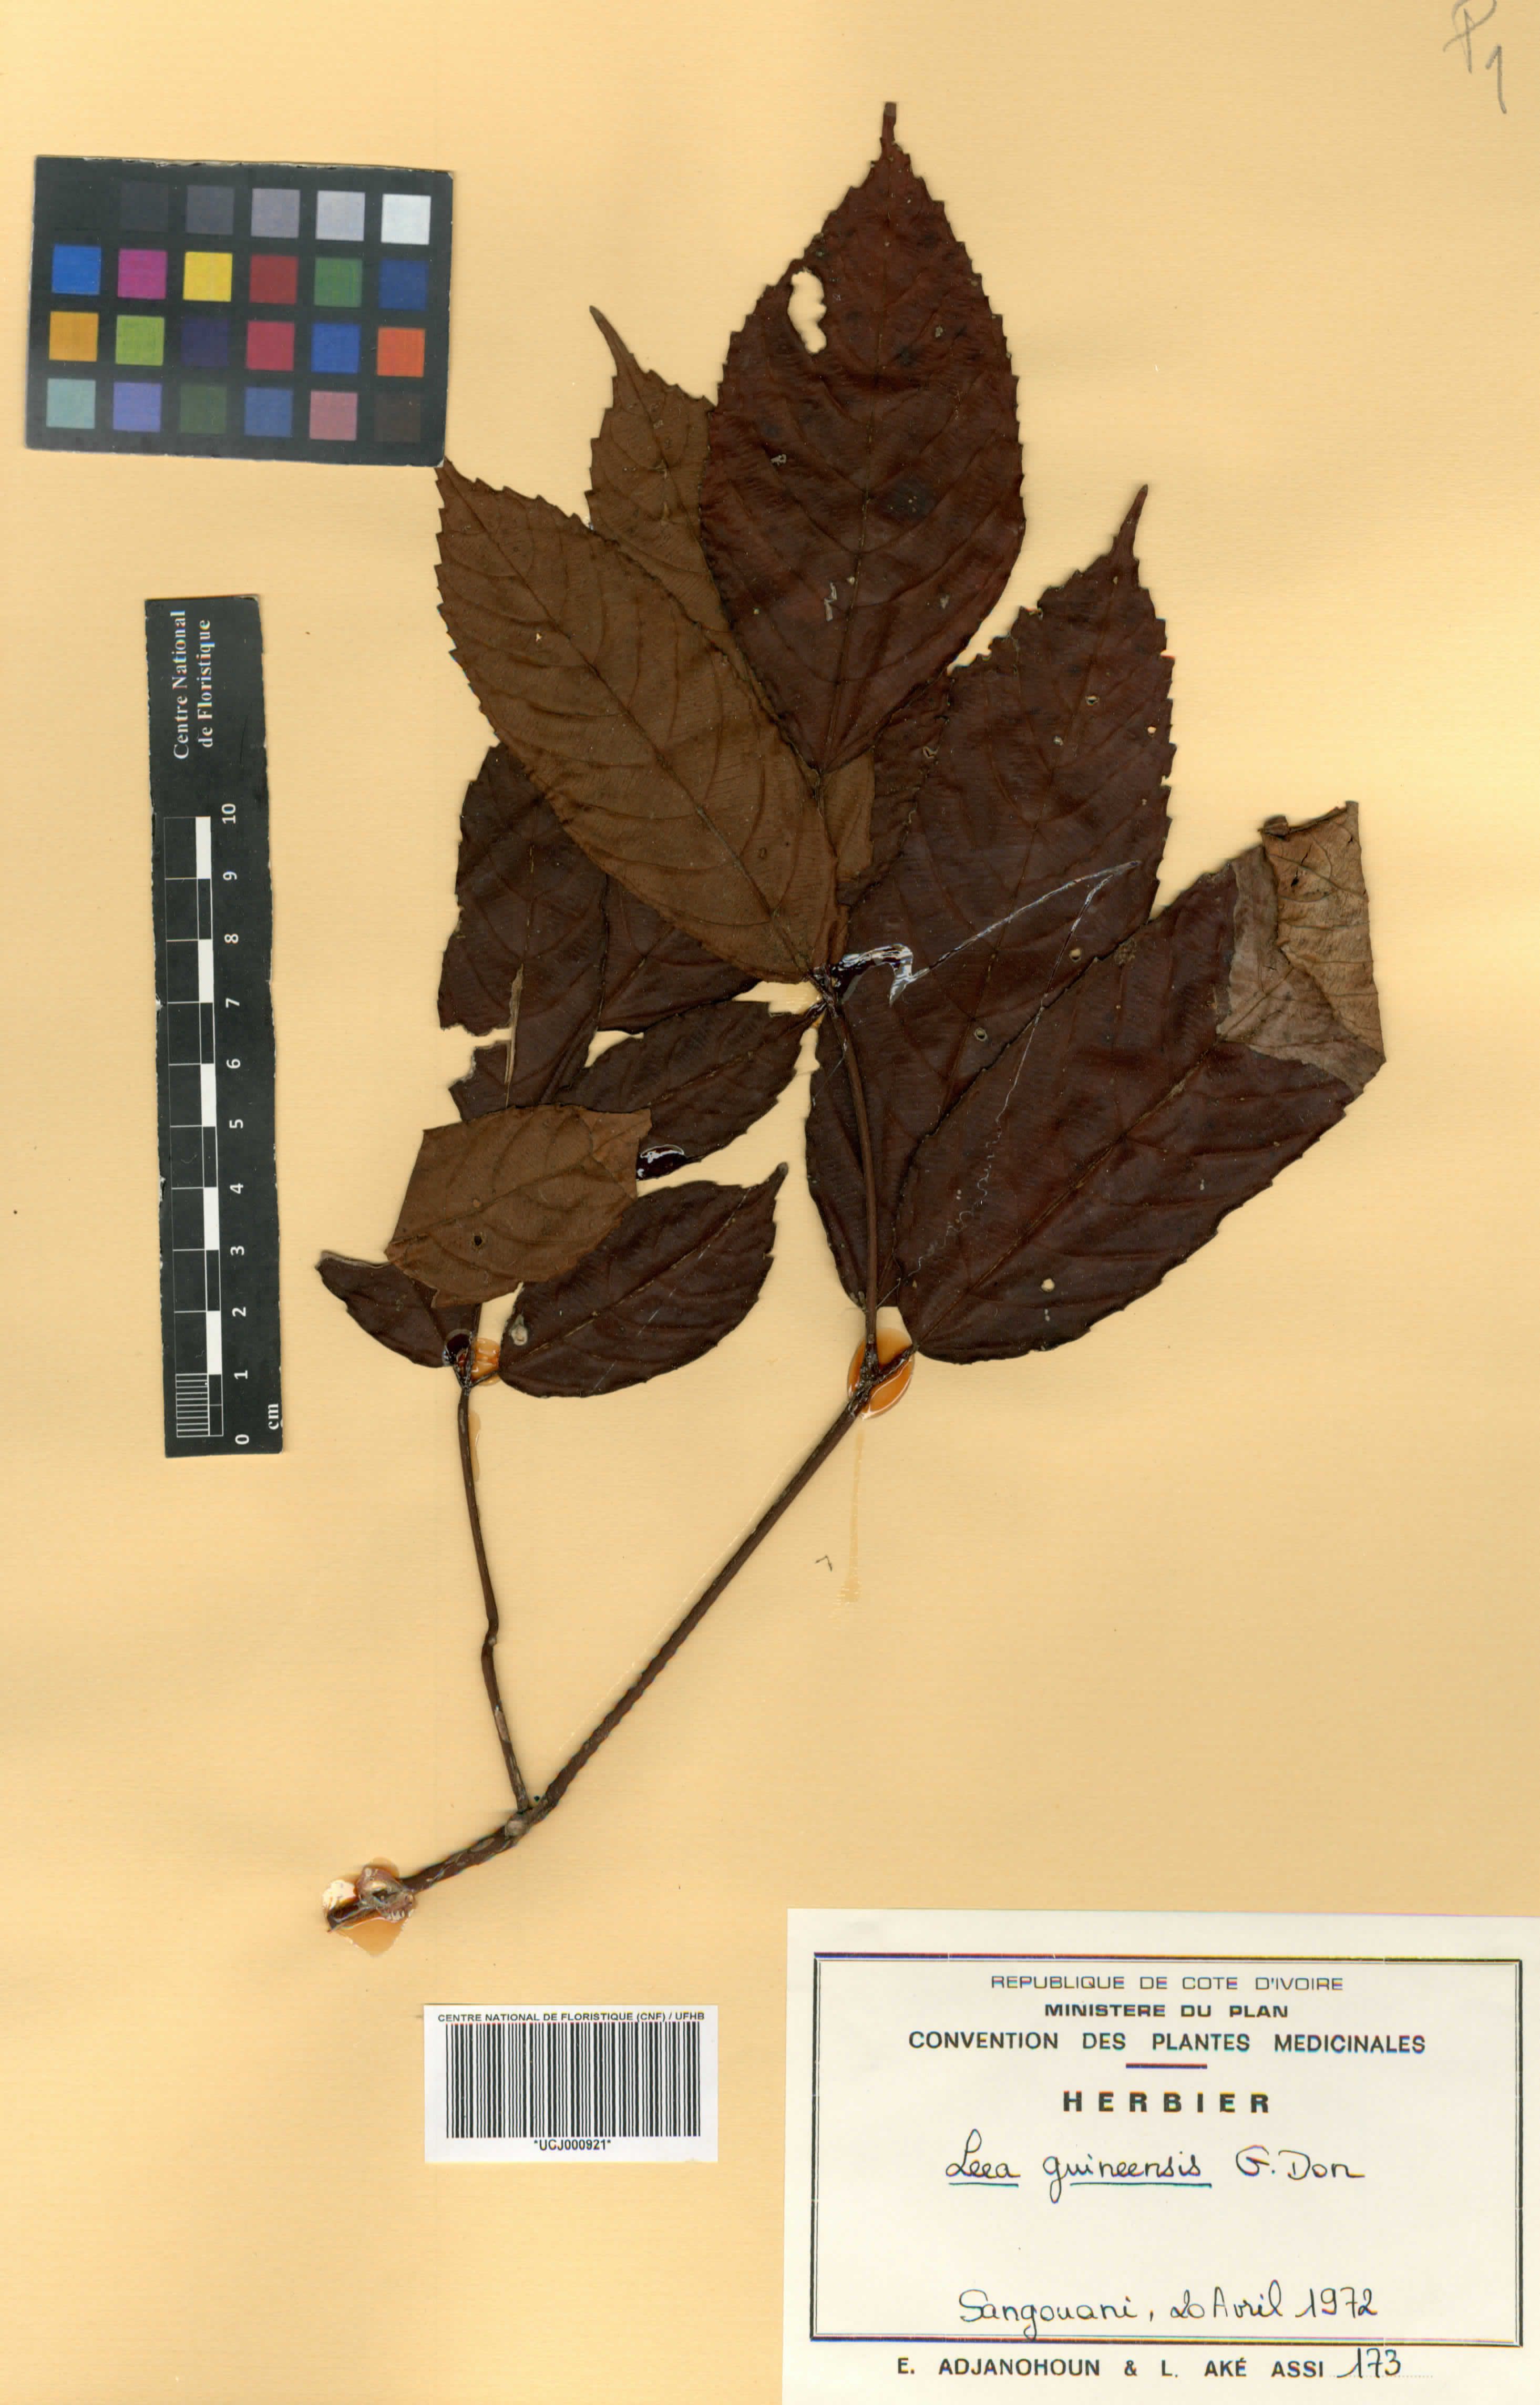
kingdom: Plantae
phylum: Tracheophyta
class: Magnoliopsida
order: Vitales
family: Vitaceae
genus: Leea
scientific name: Leea guineensis
